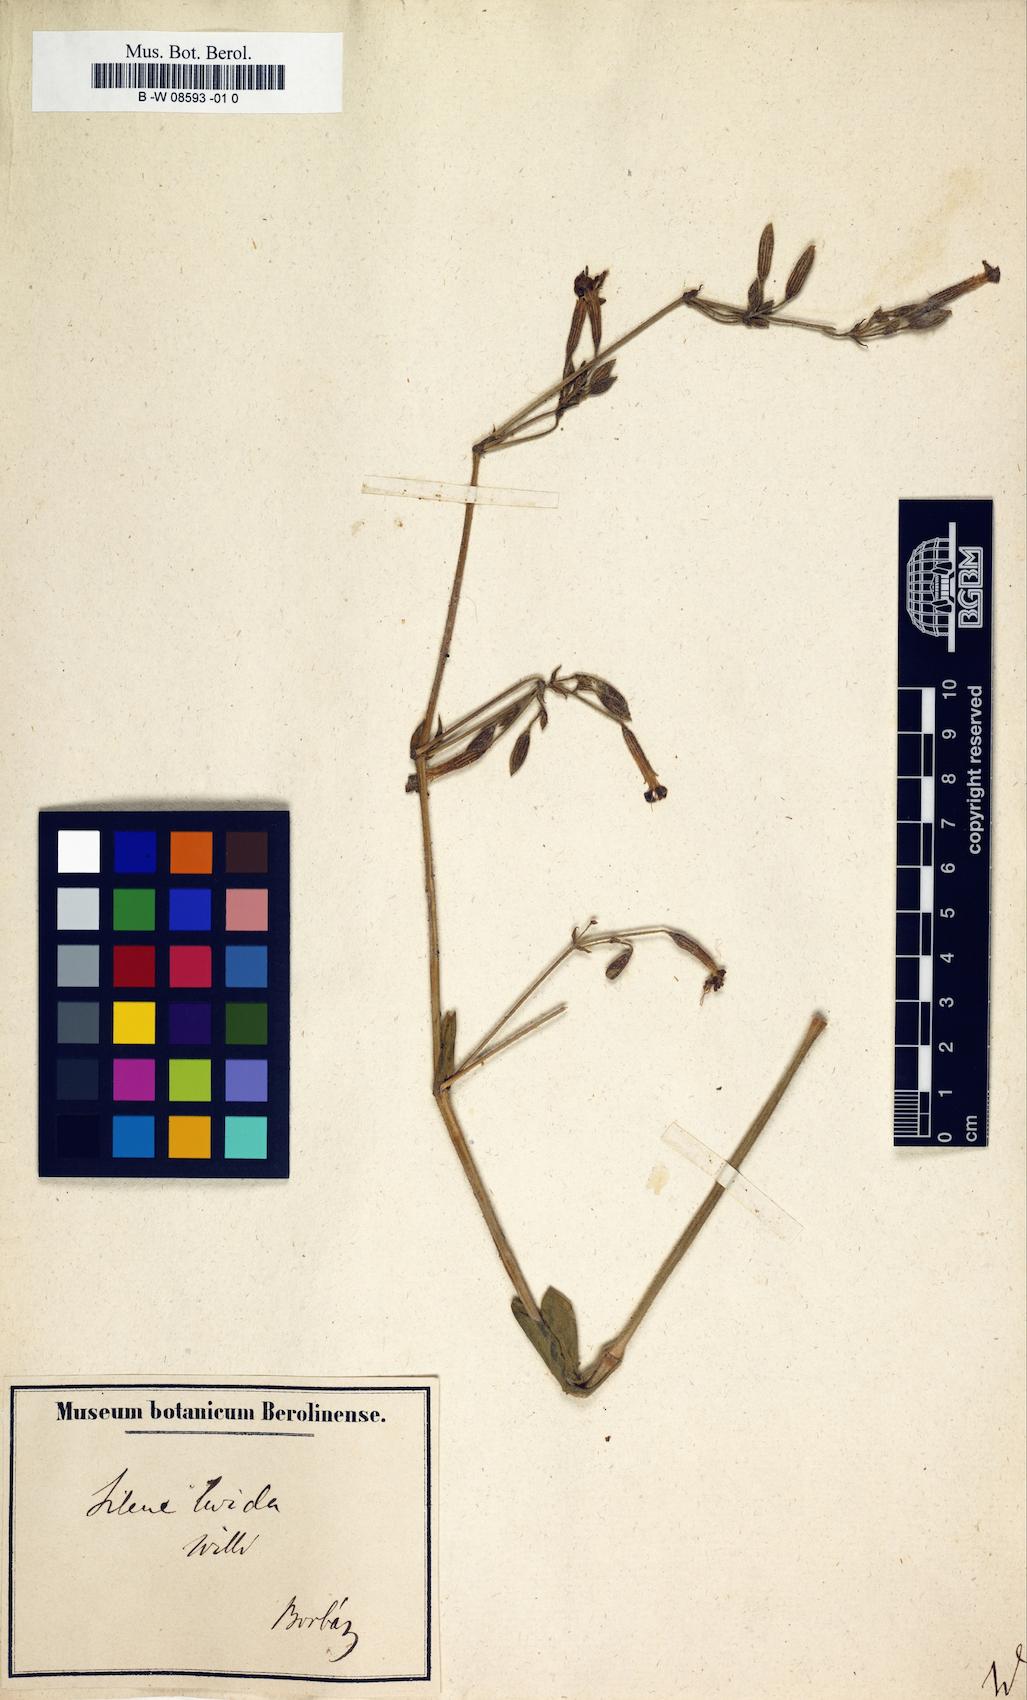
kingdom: Animalia
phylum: Cnidaria
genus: Cucubalus
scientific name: Cucubalus
